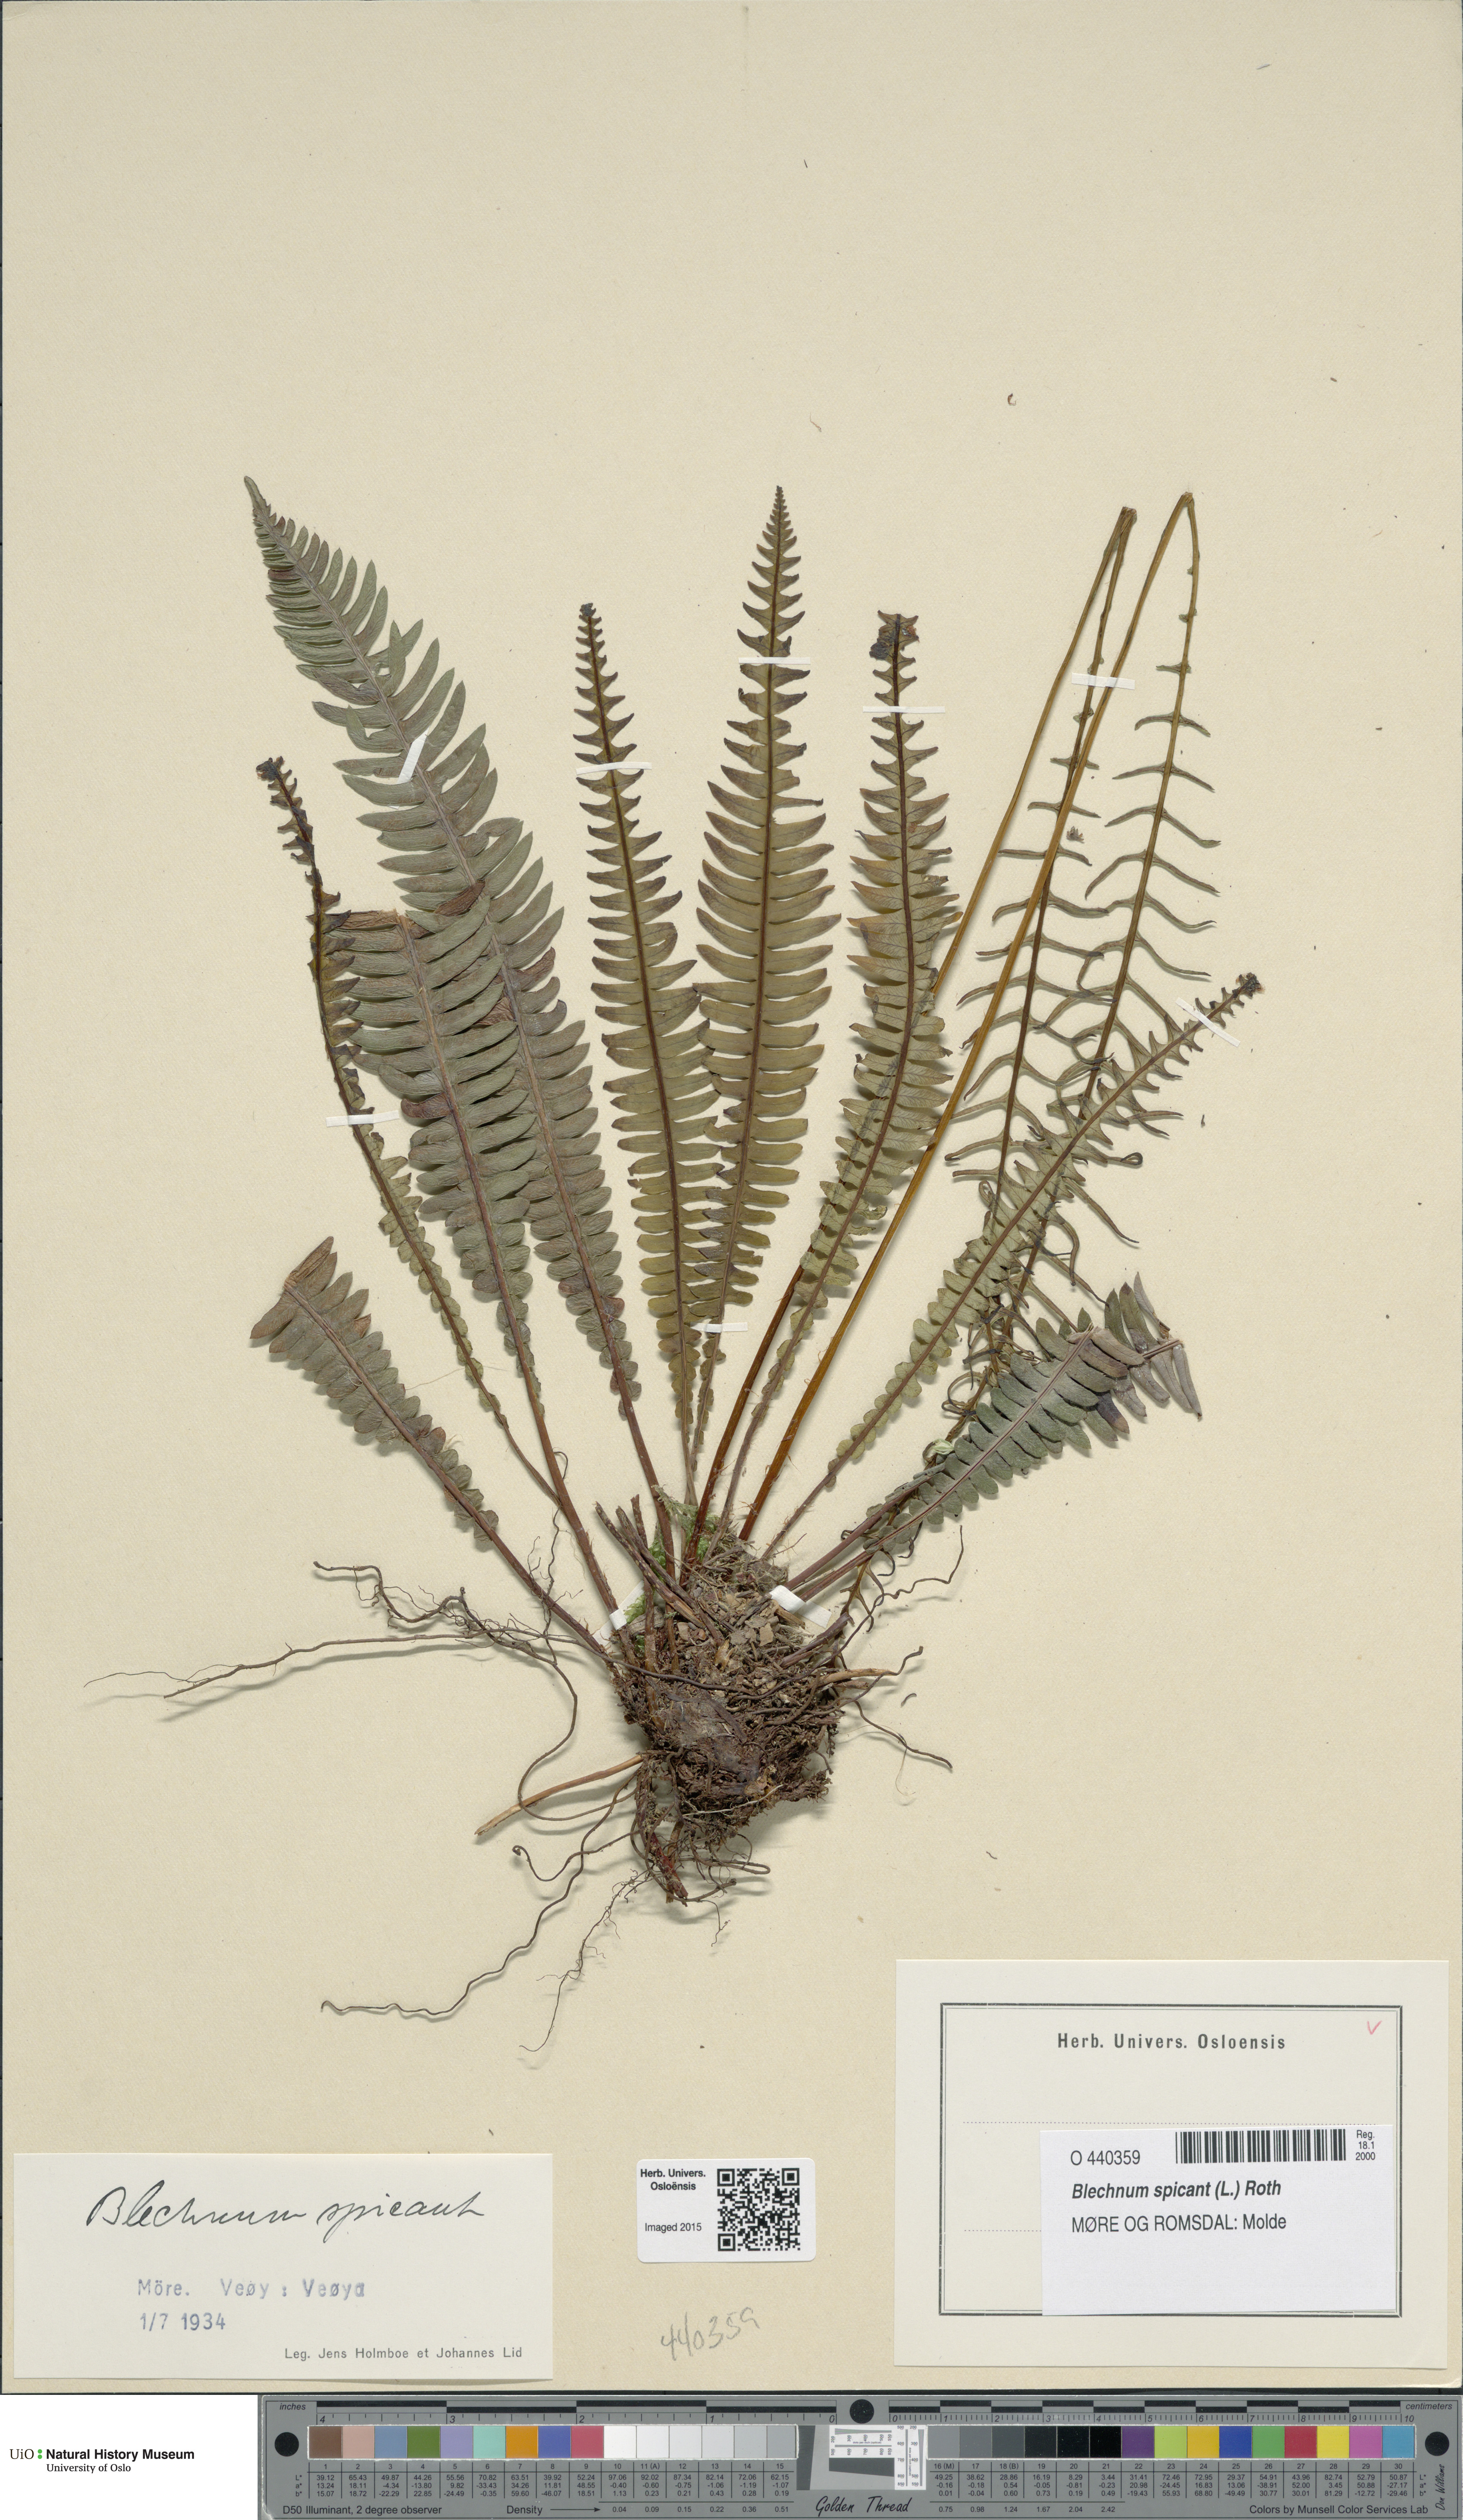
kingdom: Plantae
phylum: Tracheophyta
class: Polypodiopsida
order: Polypodiales
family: Blechnaceae
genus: Struthiopteris
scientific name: Struthiopteris spicant
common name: Deer fern
